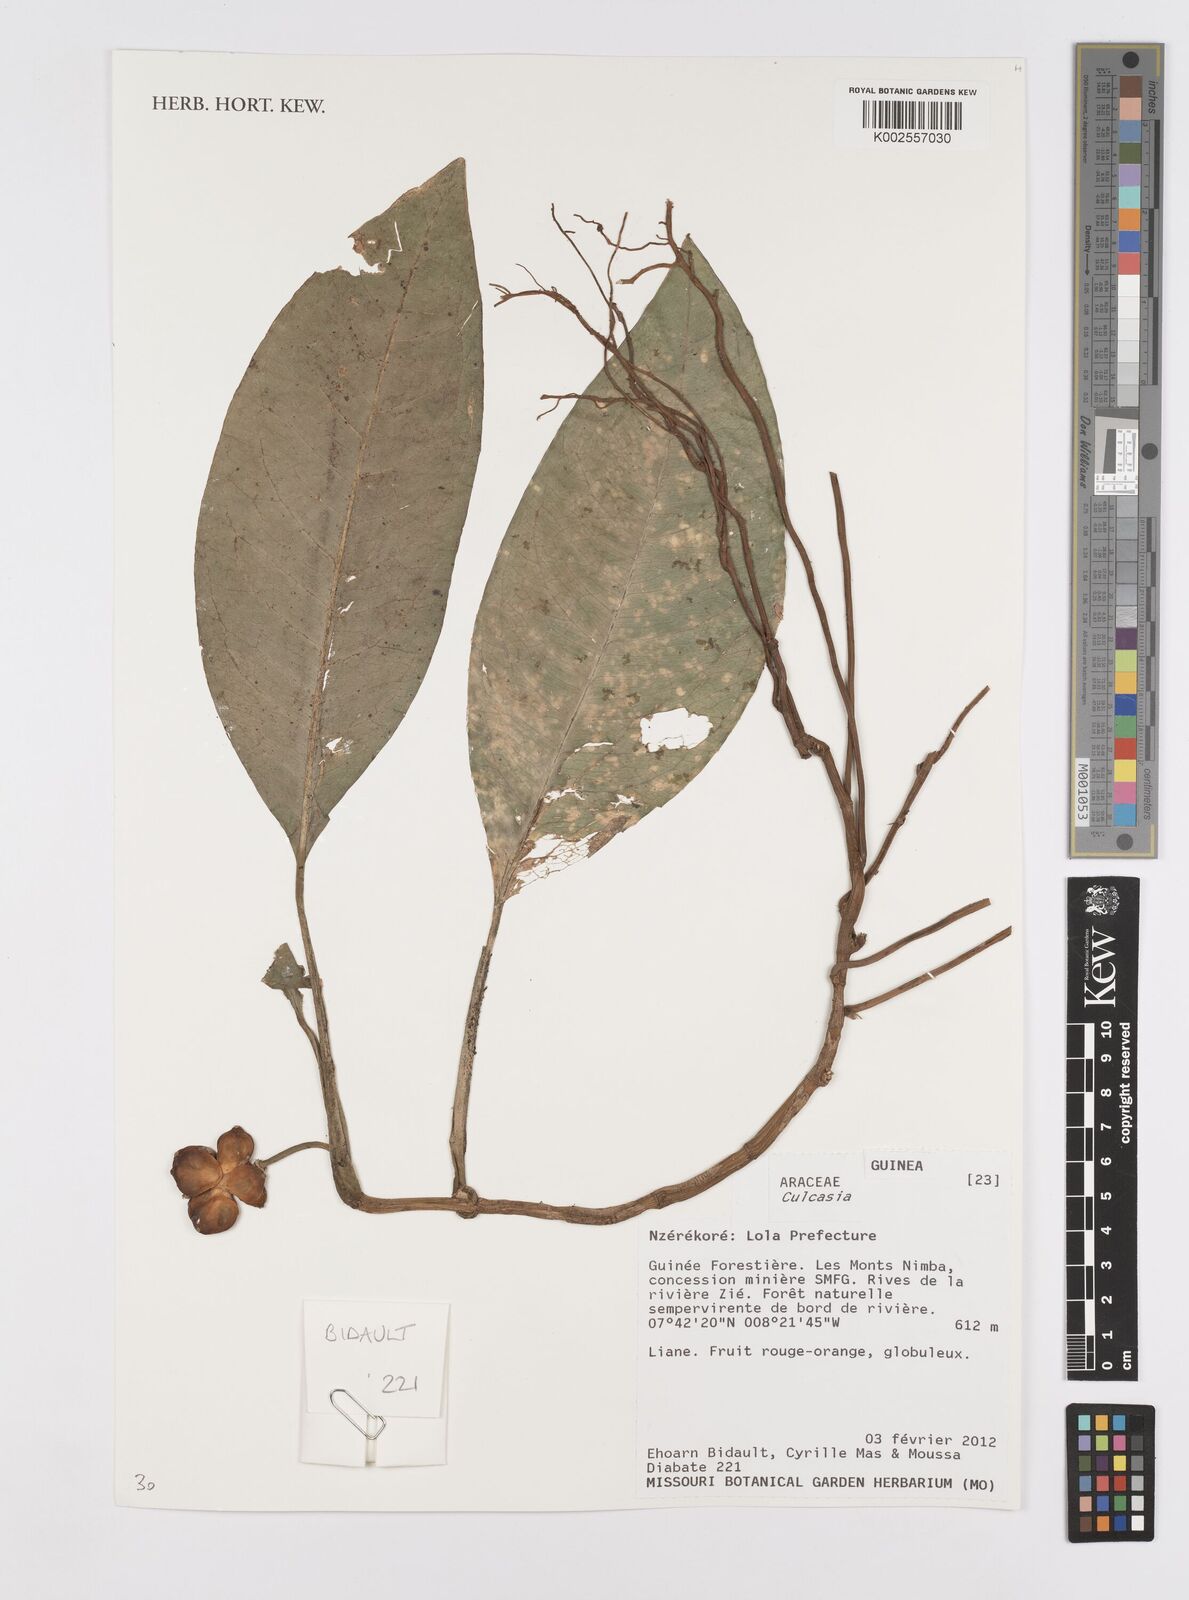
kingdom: Plantae
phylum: Tracheophyta
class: Liliopsida
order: Alismatales
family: Araceae
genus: Culcasia
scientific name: Culcasia
